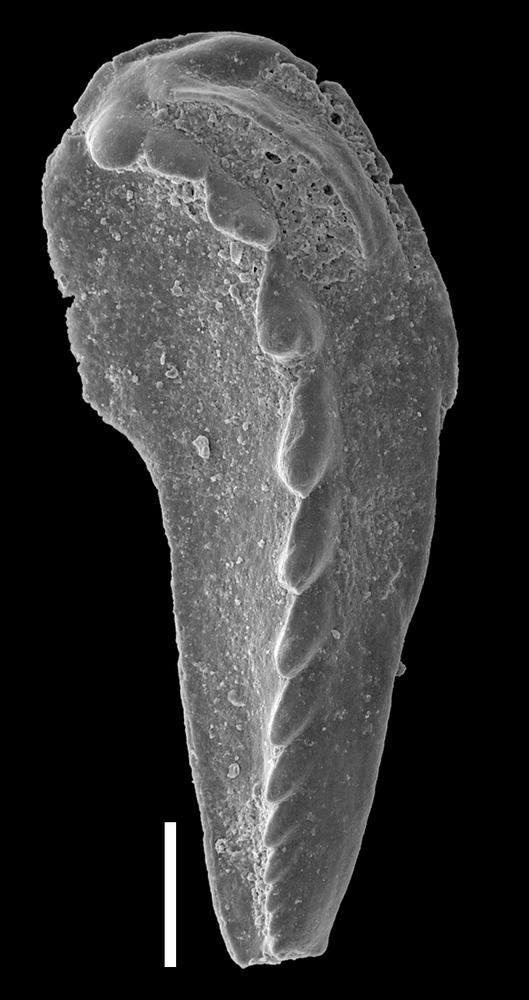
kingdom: Animalia
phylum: Annelida
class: Polychaeta
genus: Pistoprion
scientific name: Pistoprion
